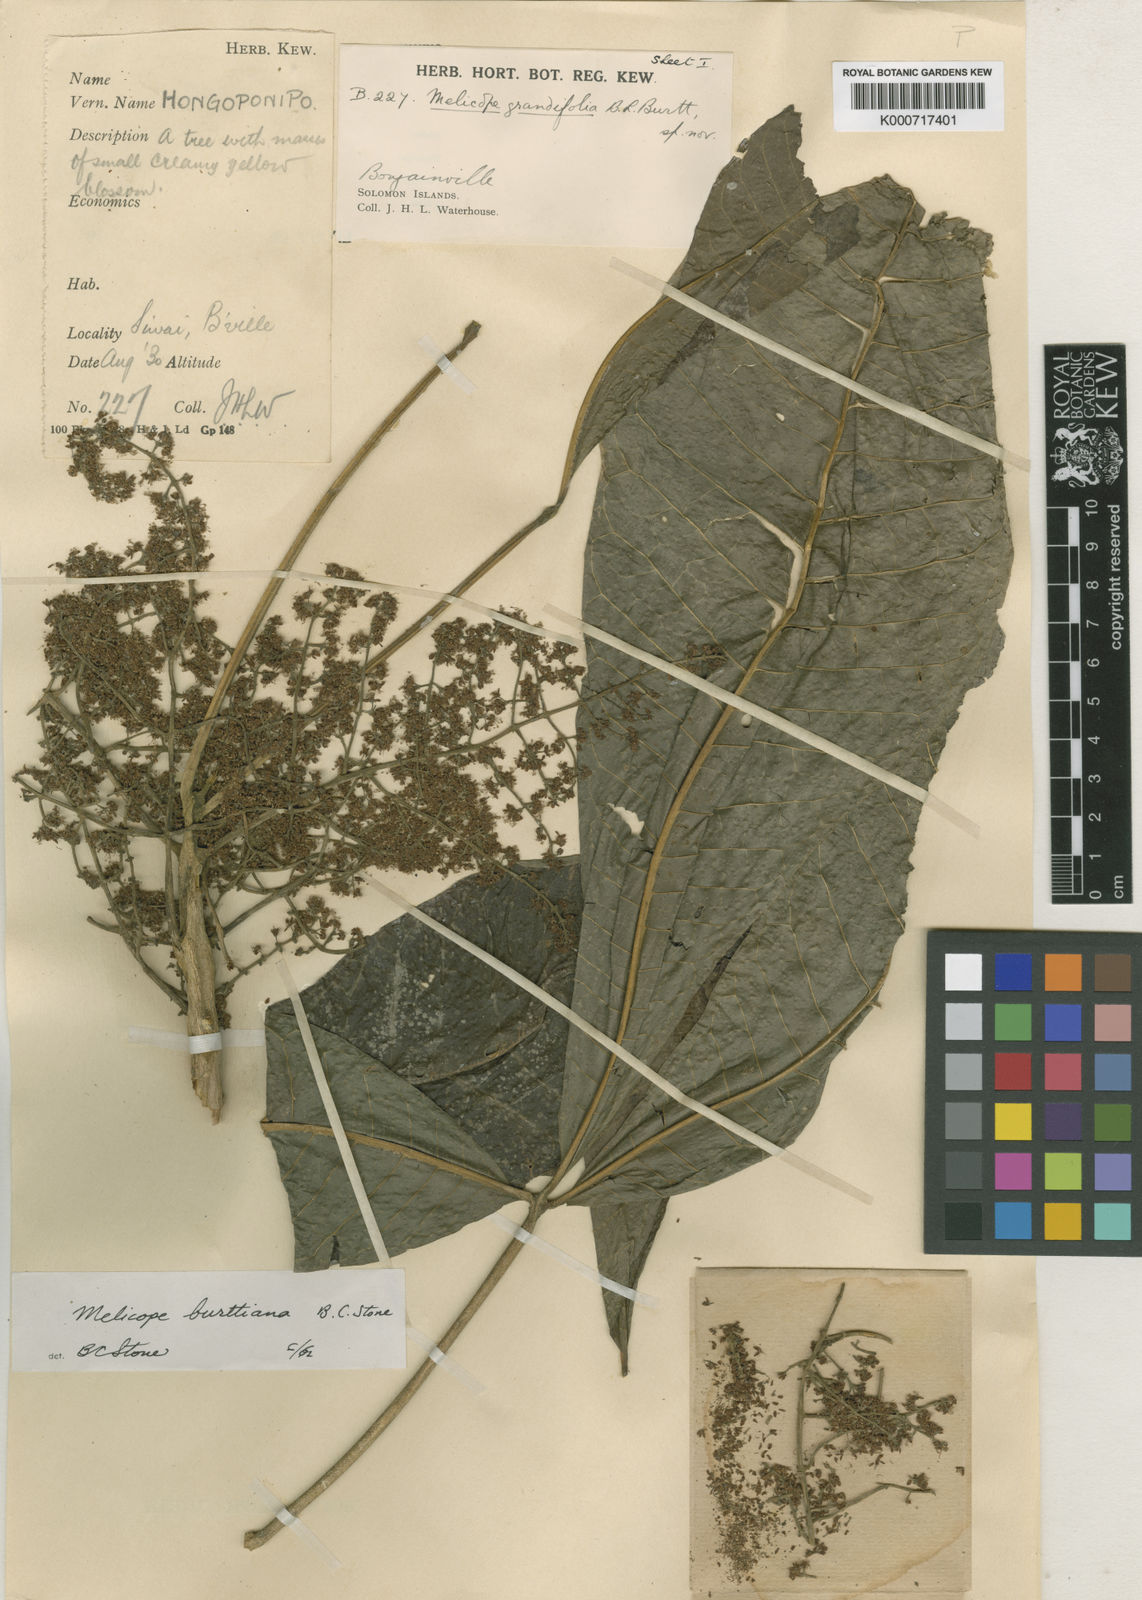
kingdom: Plantae
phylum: Tracheophyta
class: Magnoliopsida
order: Sapindales
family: Rutaceae
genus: Melicope
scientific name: Melicope burttiana
